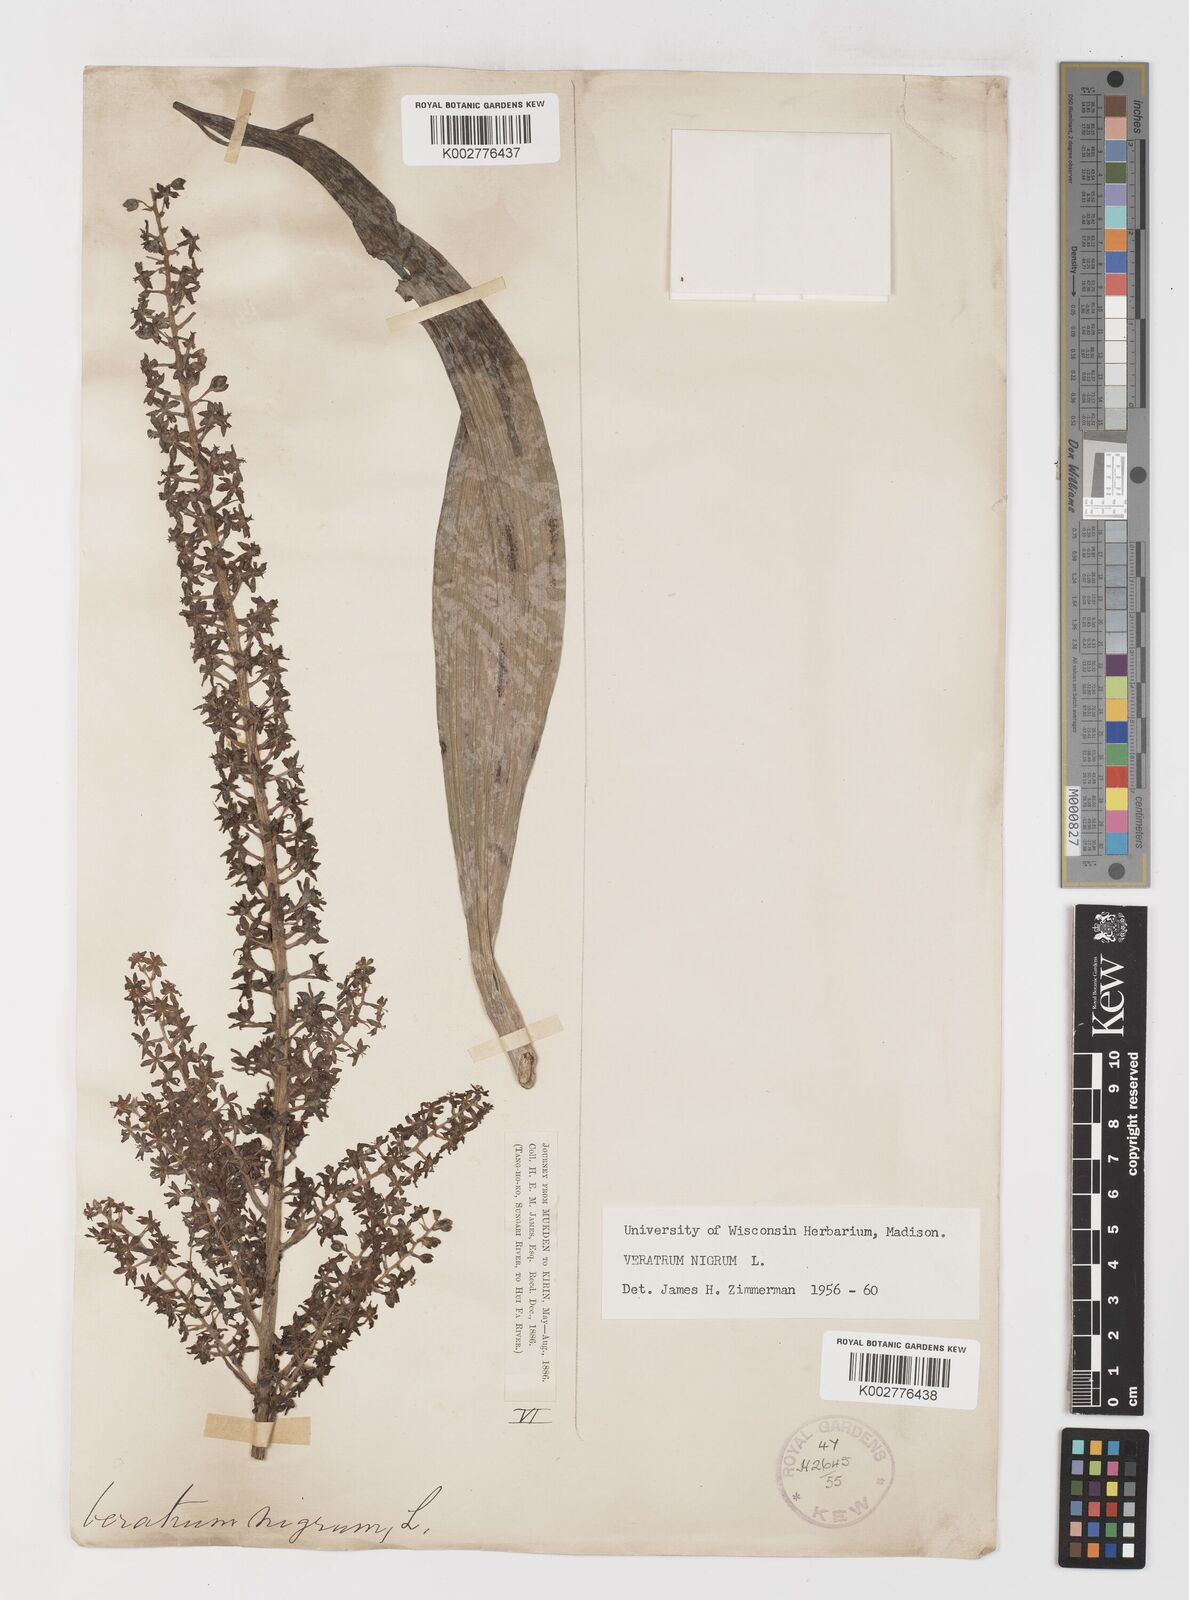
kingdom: Plantae
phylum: Tracheophyta
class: Liliopsida
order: Liliales
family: Melanthiaceae
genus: Veratrum
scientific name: Veratrum nigrum
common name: Black veratrum
